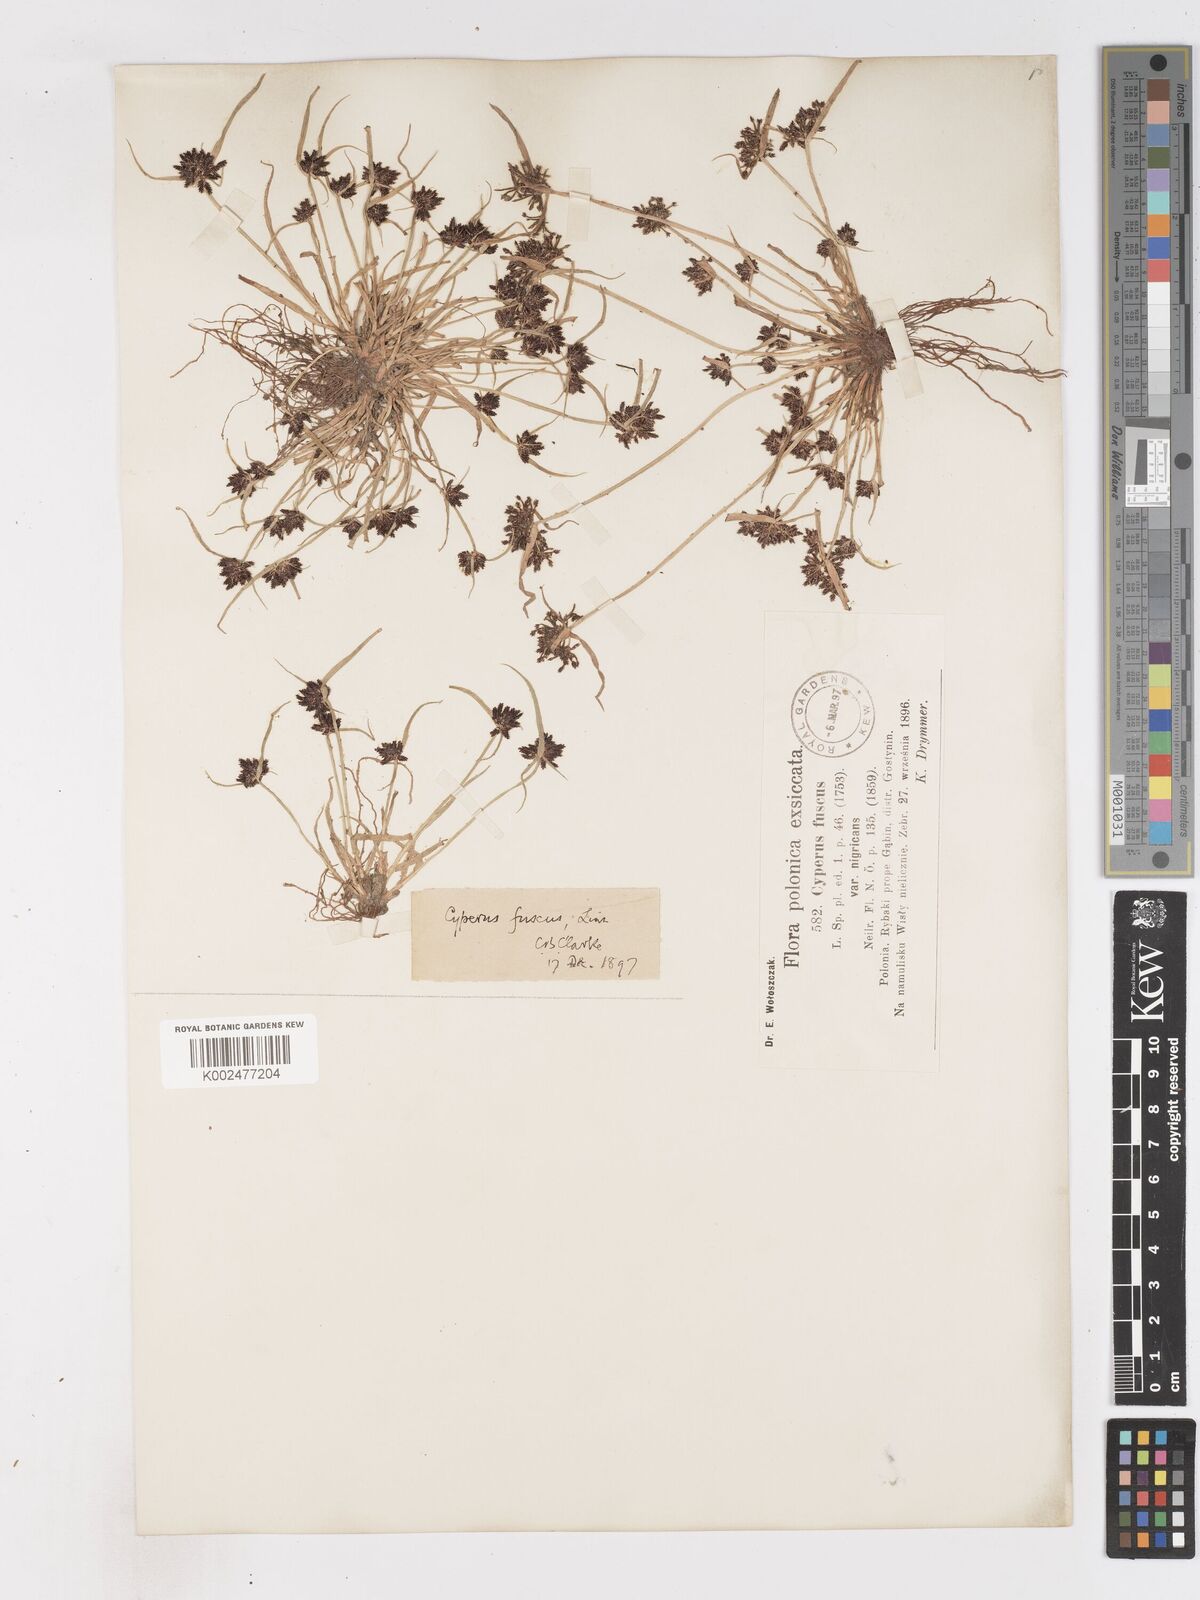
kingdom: Plantae
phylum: Tracheophyta
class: Liliopsida
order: Poales
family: Cyperaceae
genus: Cyperus
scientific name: Cyperus fuscus
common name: Brown galingale
